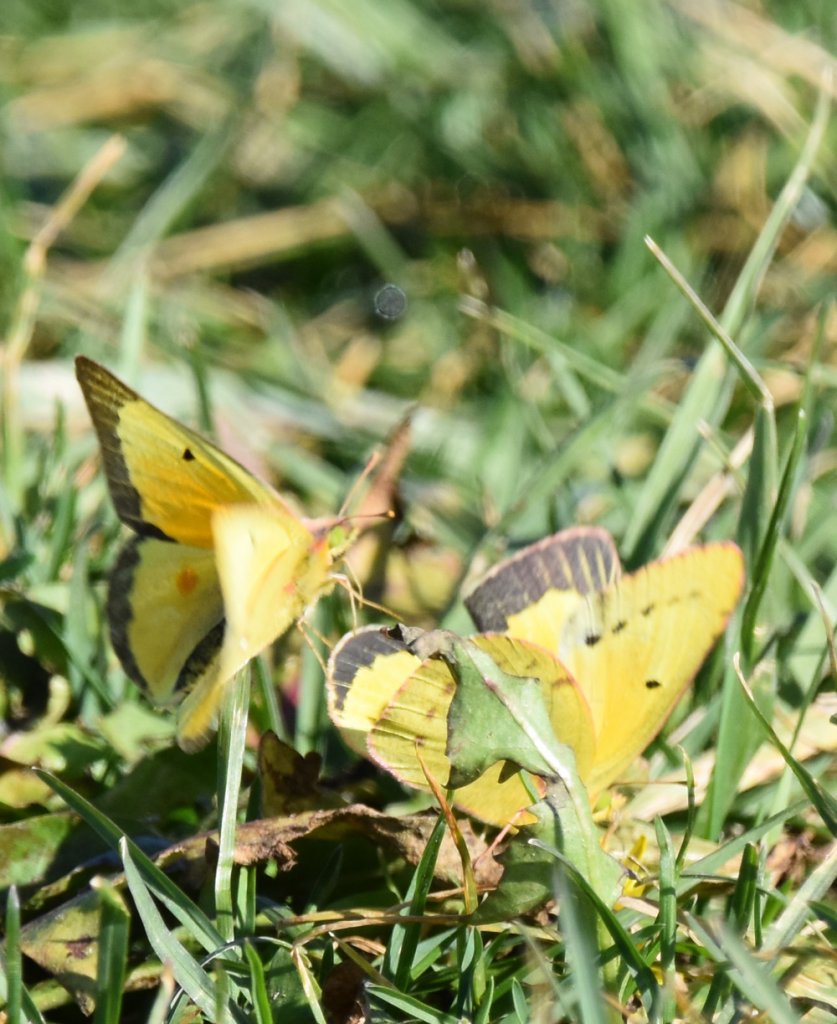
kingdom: Animalia
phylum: Arthropoda
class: Insecta
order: Lepidoptera
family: Pieridae
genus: Colias
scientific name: Colias eurytheme
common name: Orange Sulphur
